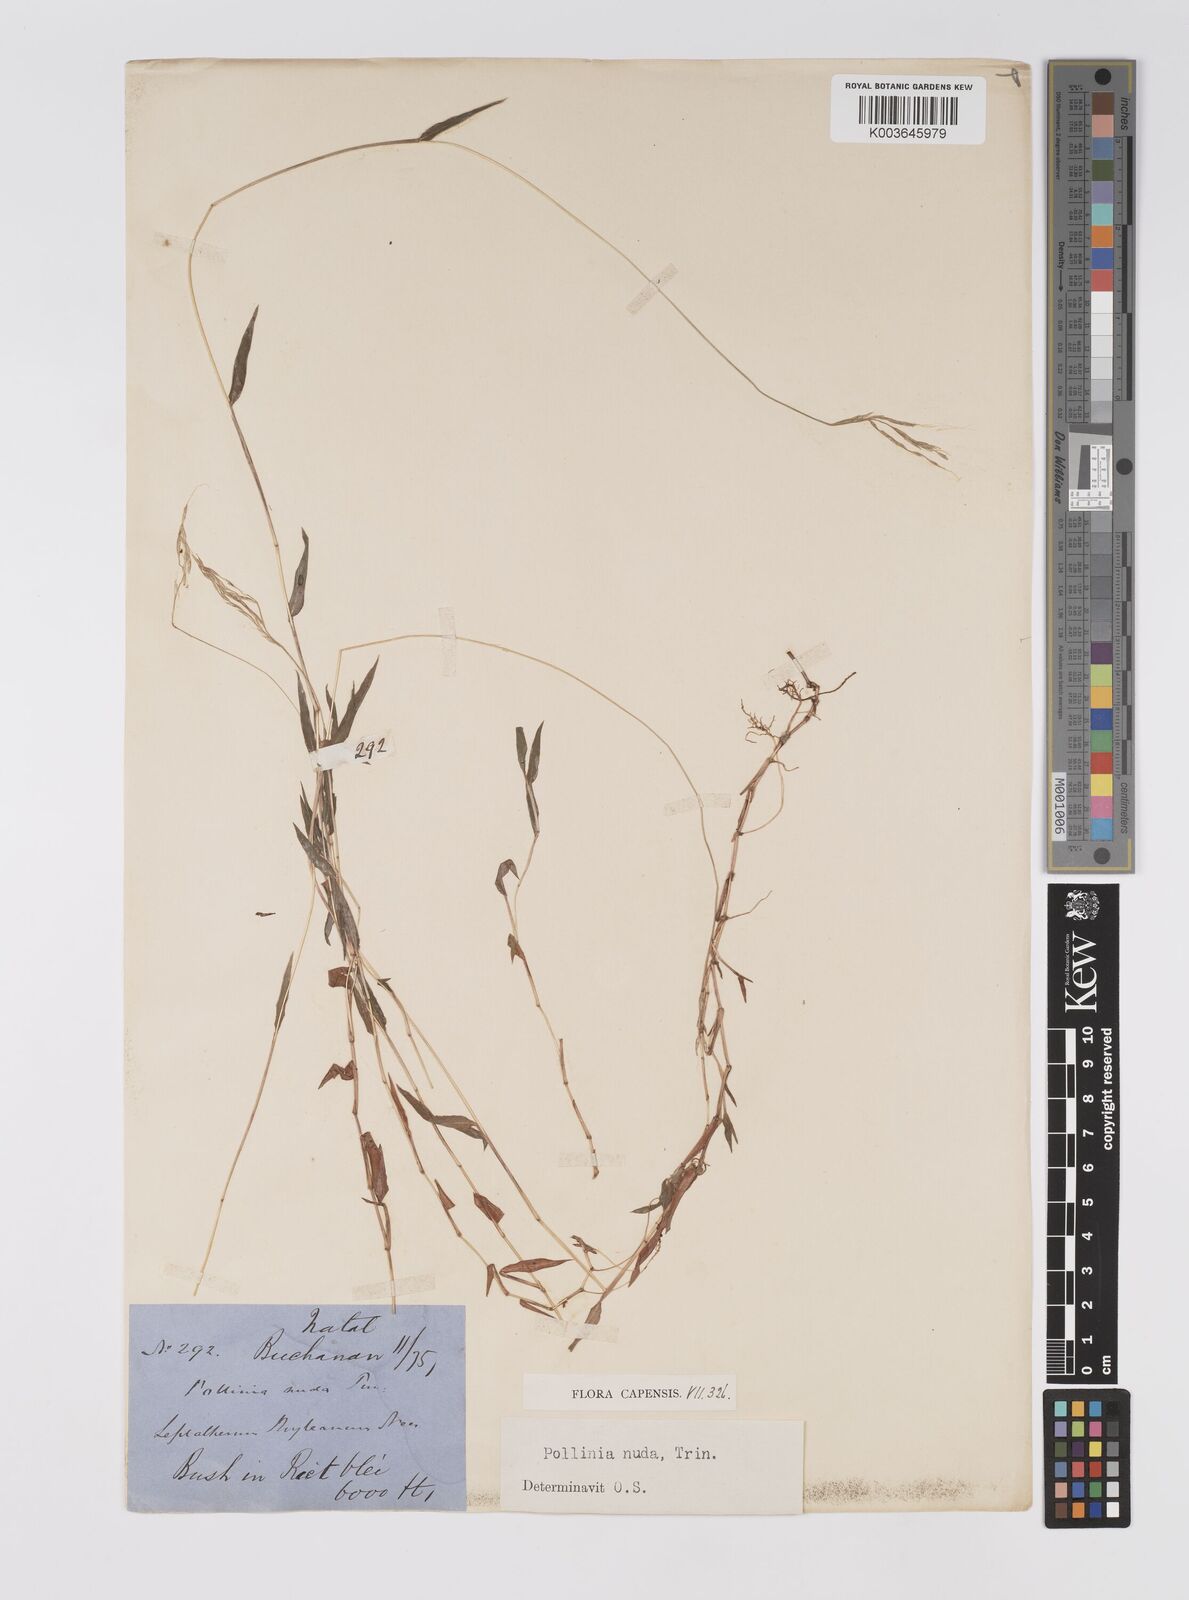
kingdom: Plantae
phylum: Tracheophyta
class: Liliopsida
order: Poales
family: Poaceae
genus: Microstegium
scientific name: Microstegium nudum
